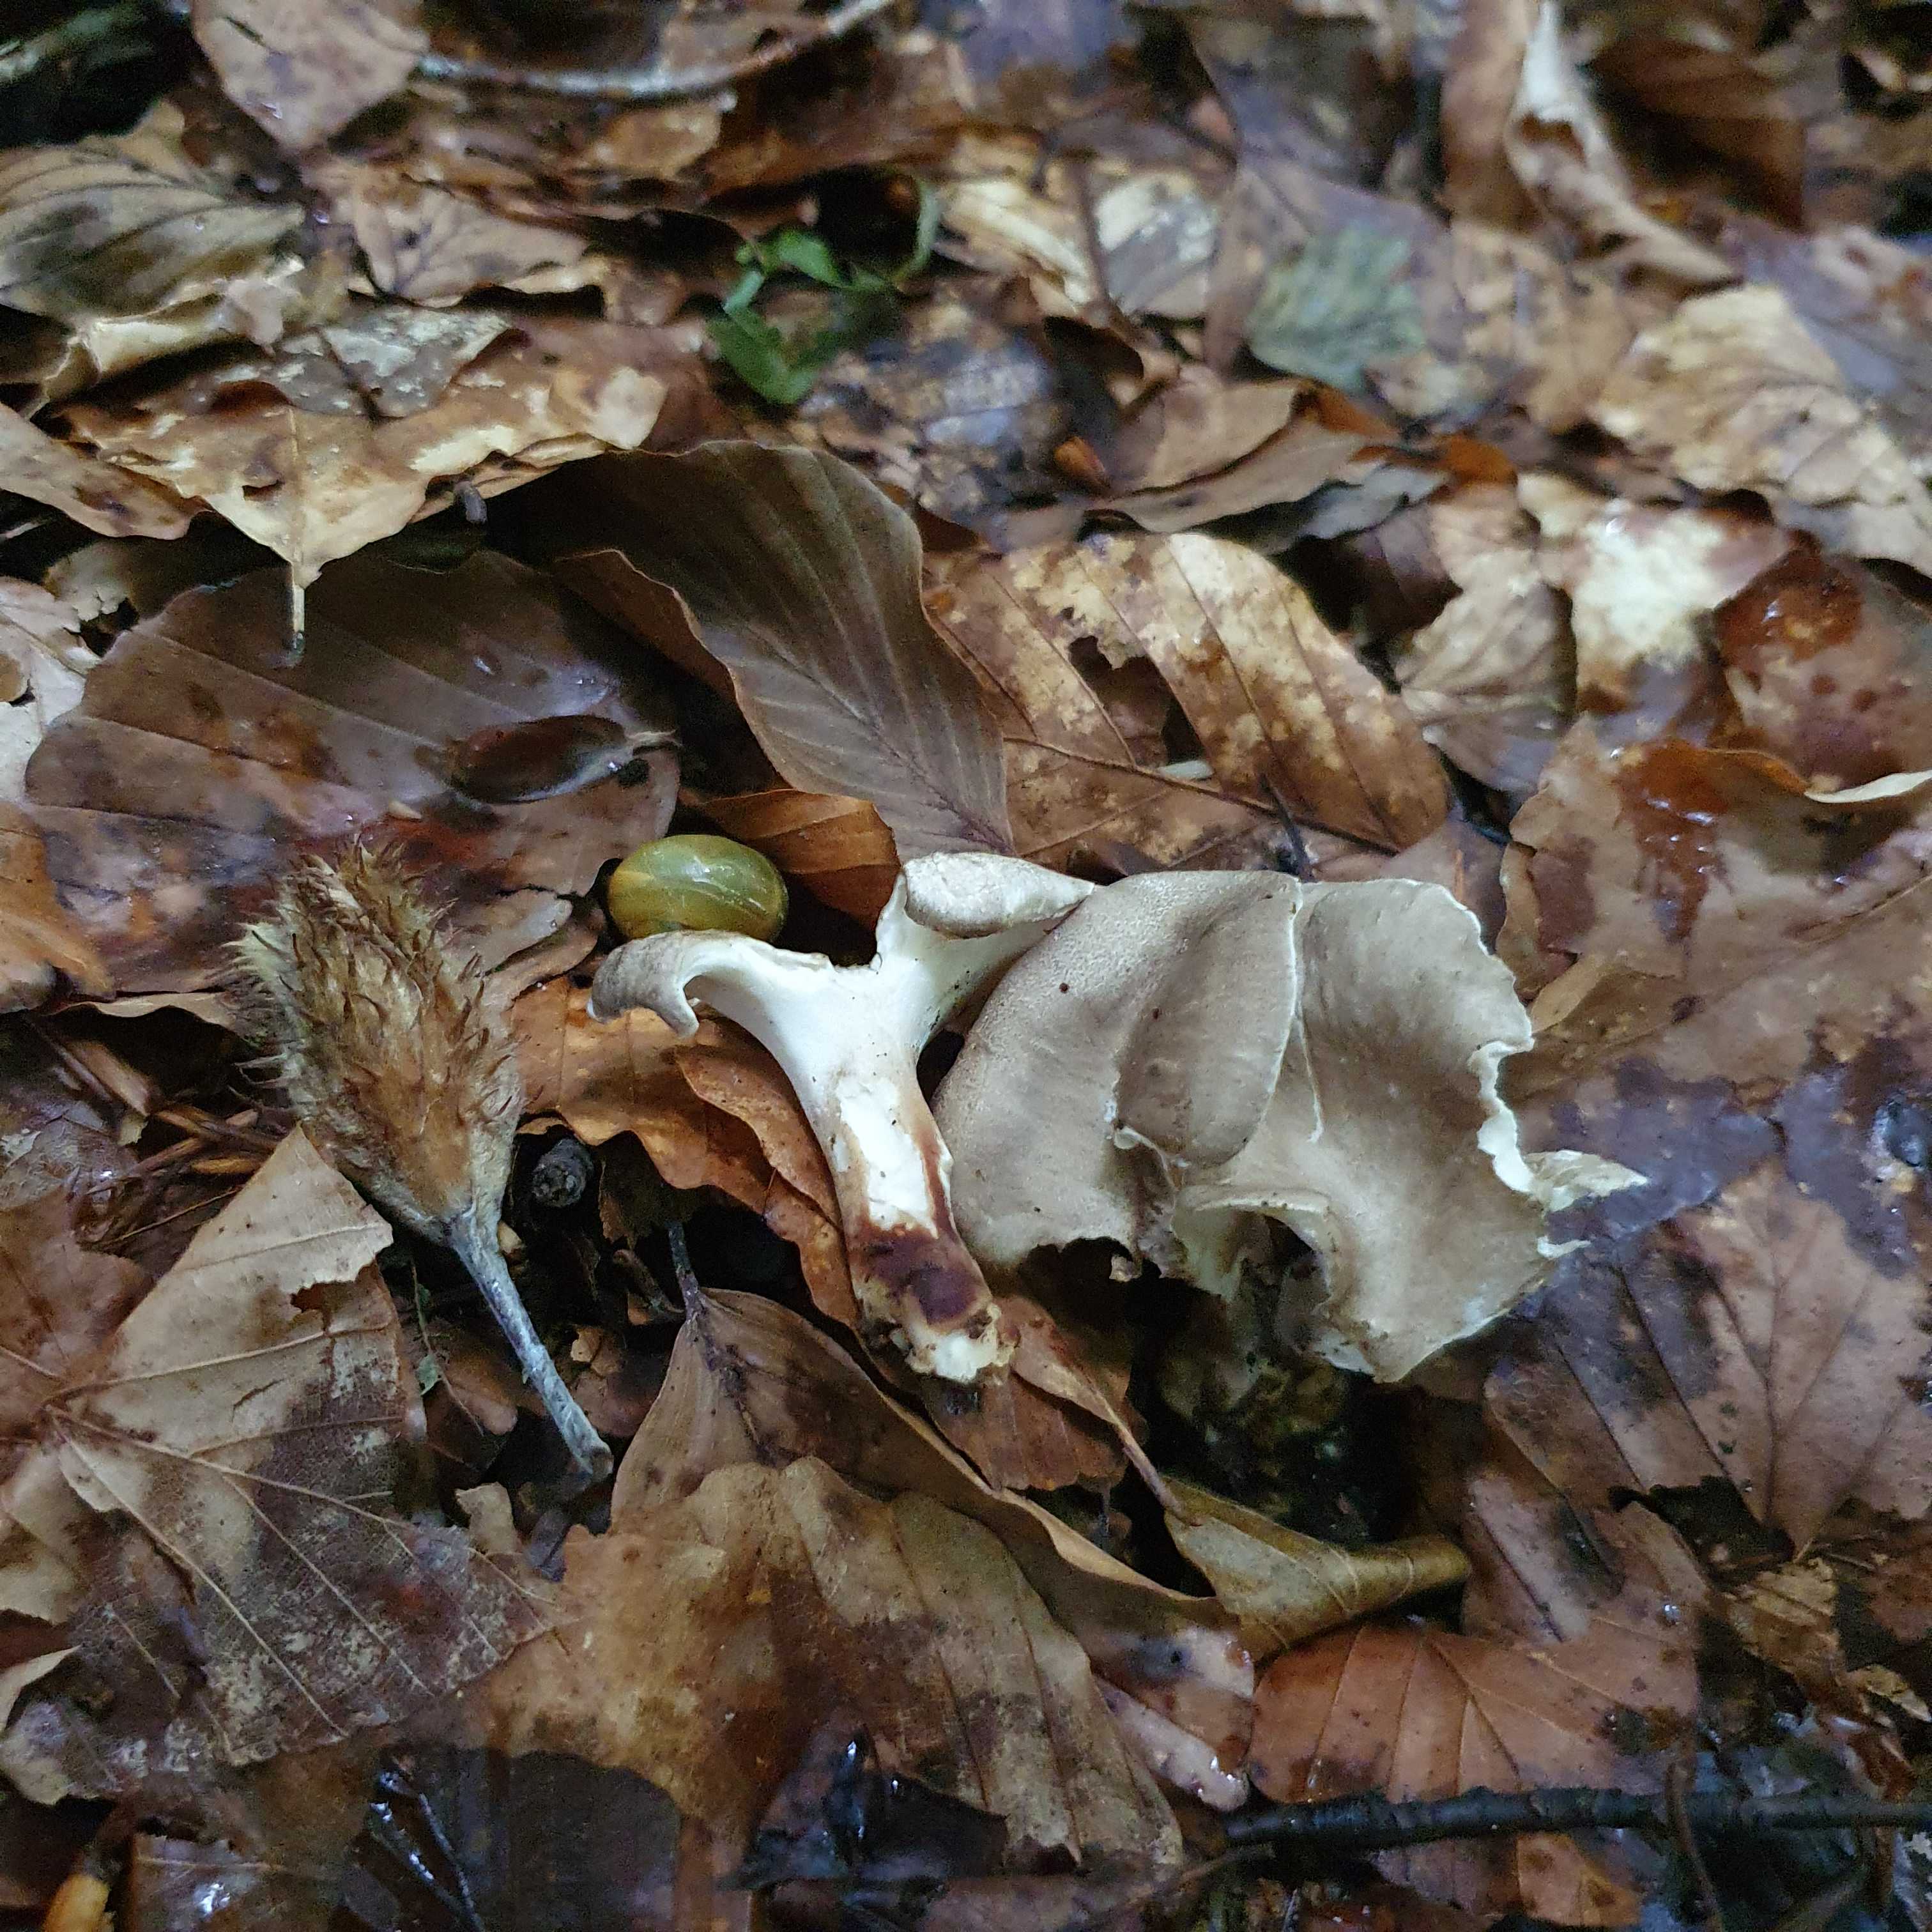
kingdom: Fungi
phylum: Basidiomycota
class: Agaricomycetes
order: Polyporales
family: Polyporaceae
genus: Picipes
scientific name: Picipes melanopus
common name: sortfodet stilkporesvamp
